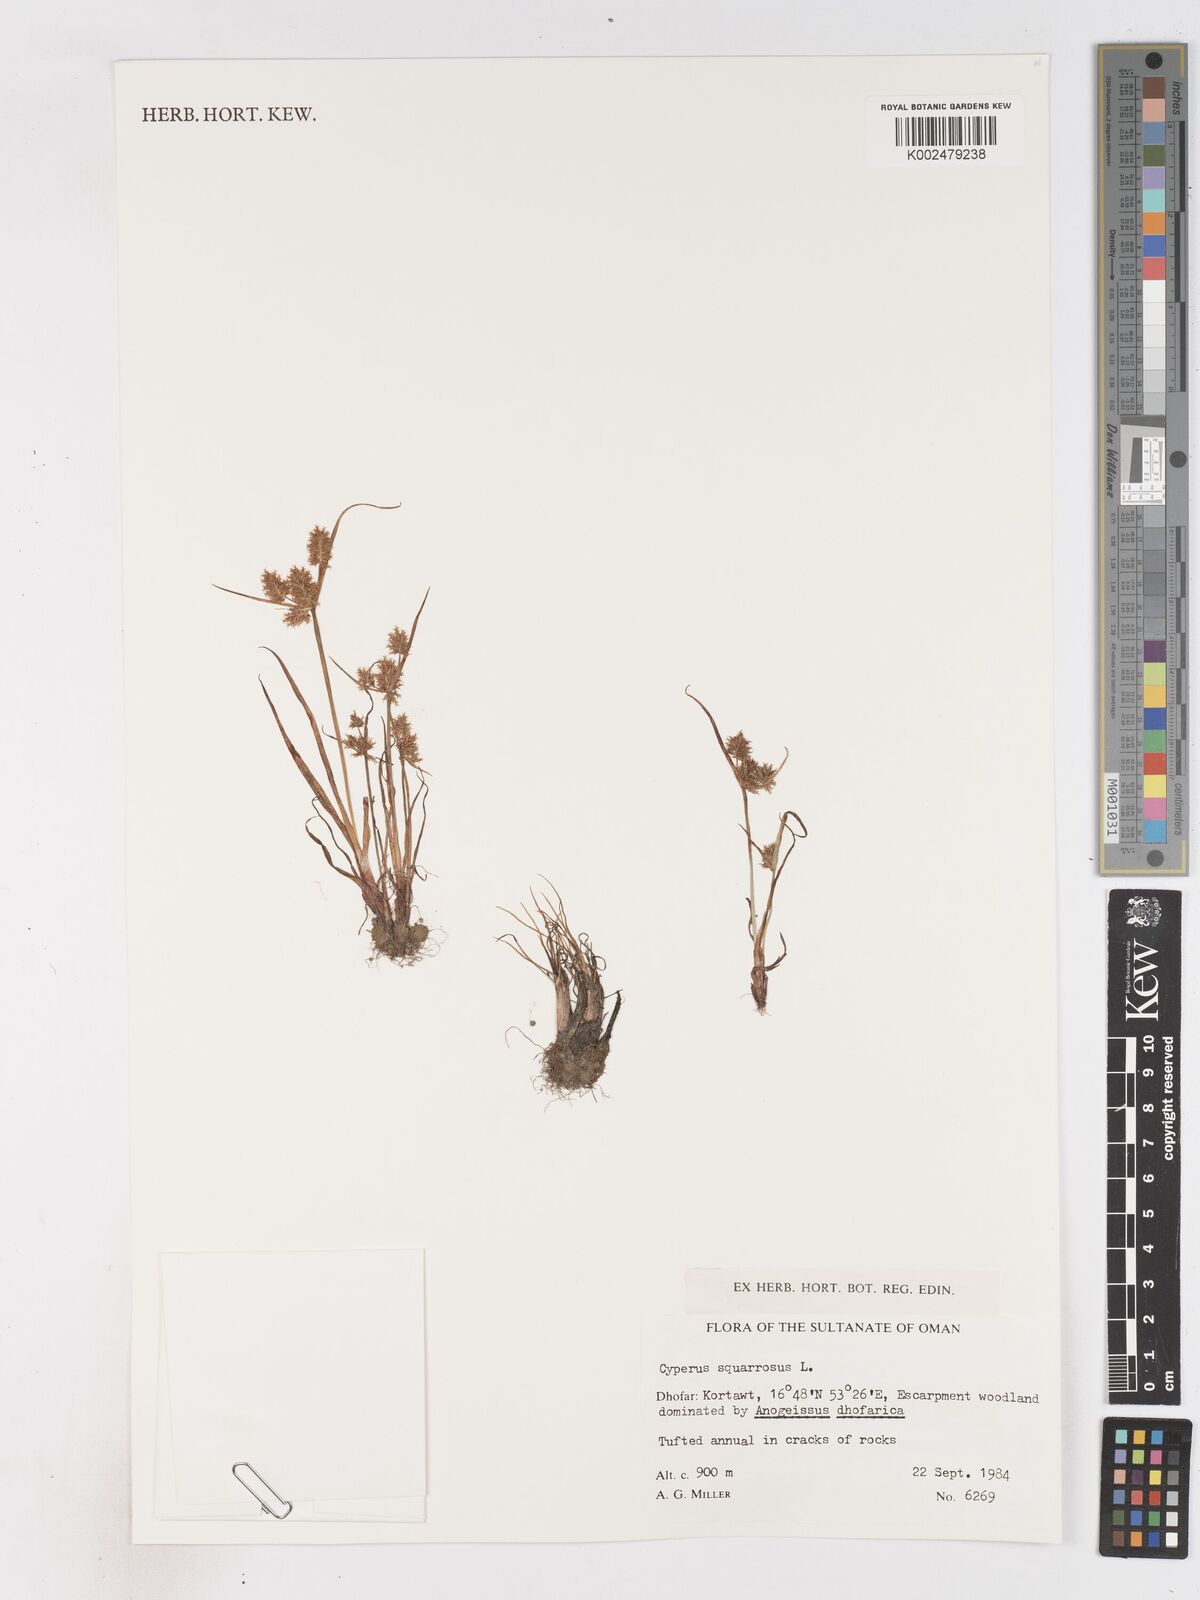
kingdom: Plantae
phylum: Tracheophyta
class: Liliopsida
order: Poales
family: Cyperaceae
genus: Cyperus
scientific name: Cyperus squarrosus
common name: Awned cyperus
